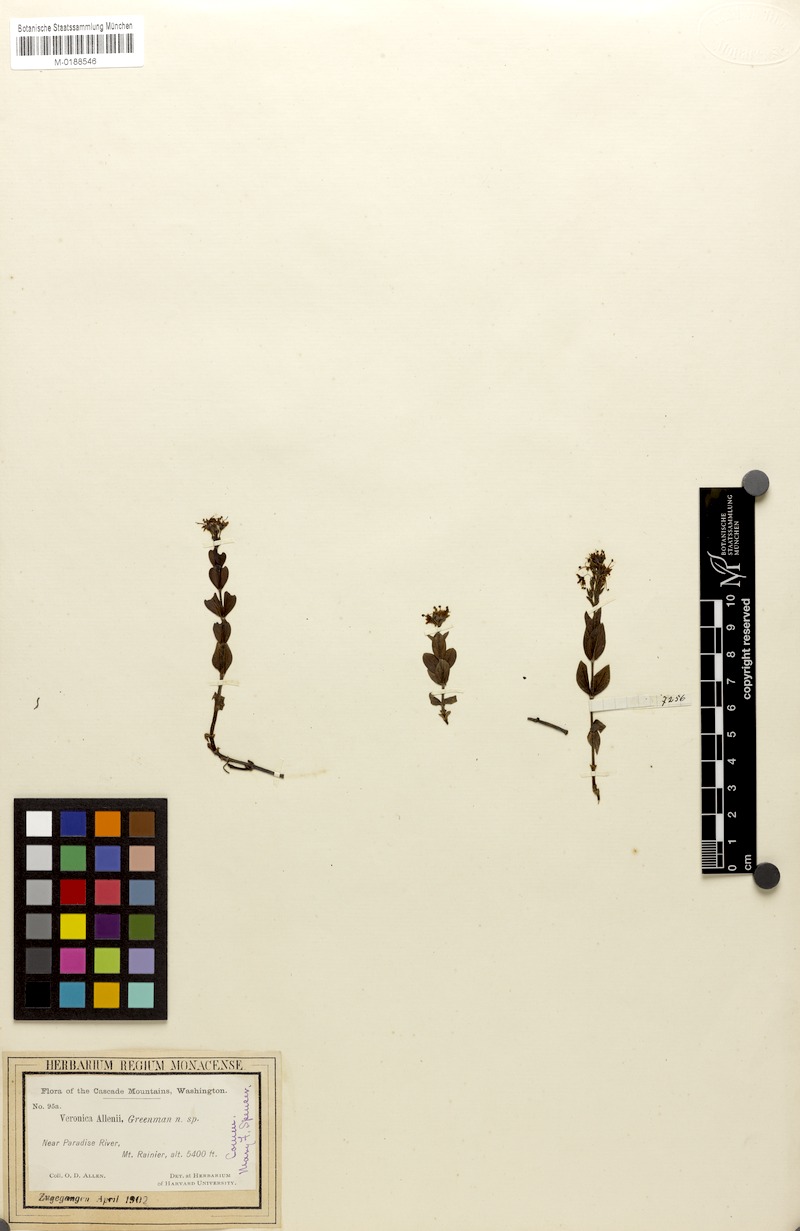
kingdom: Plantae
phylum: Tracheophyta
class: Magnoliopsida
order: Lamiales
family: Plantaginaceae
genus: Veronica
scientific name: Veronica cusickii
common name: Cusick's speedwell
